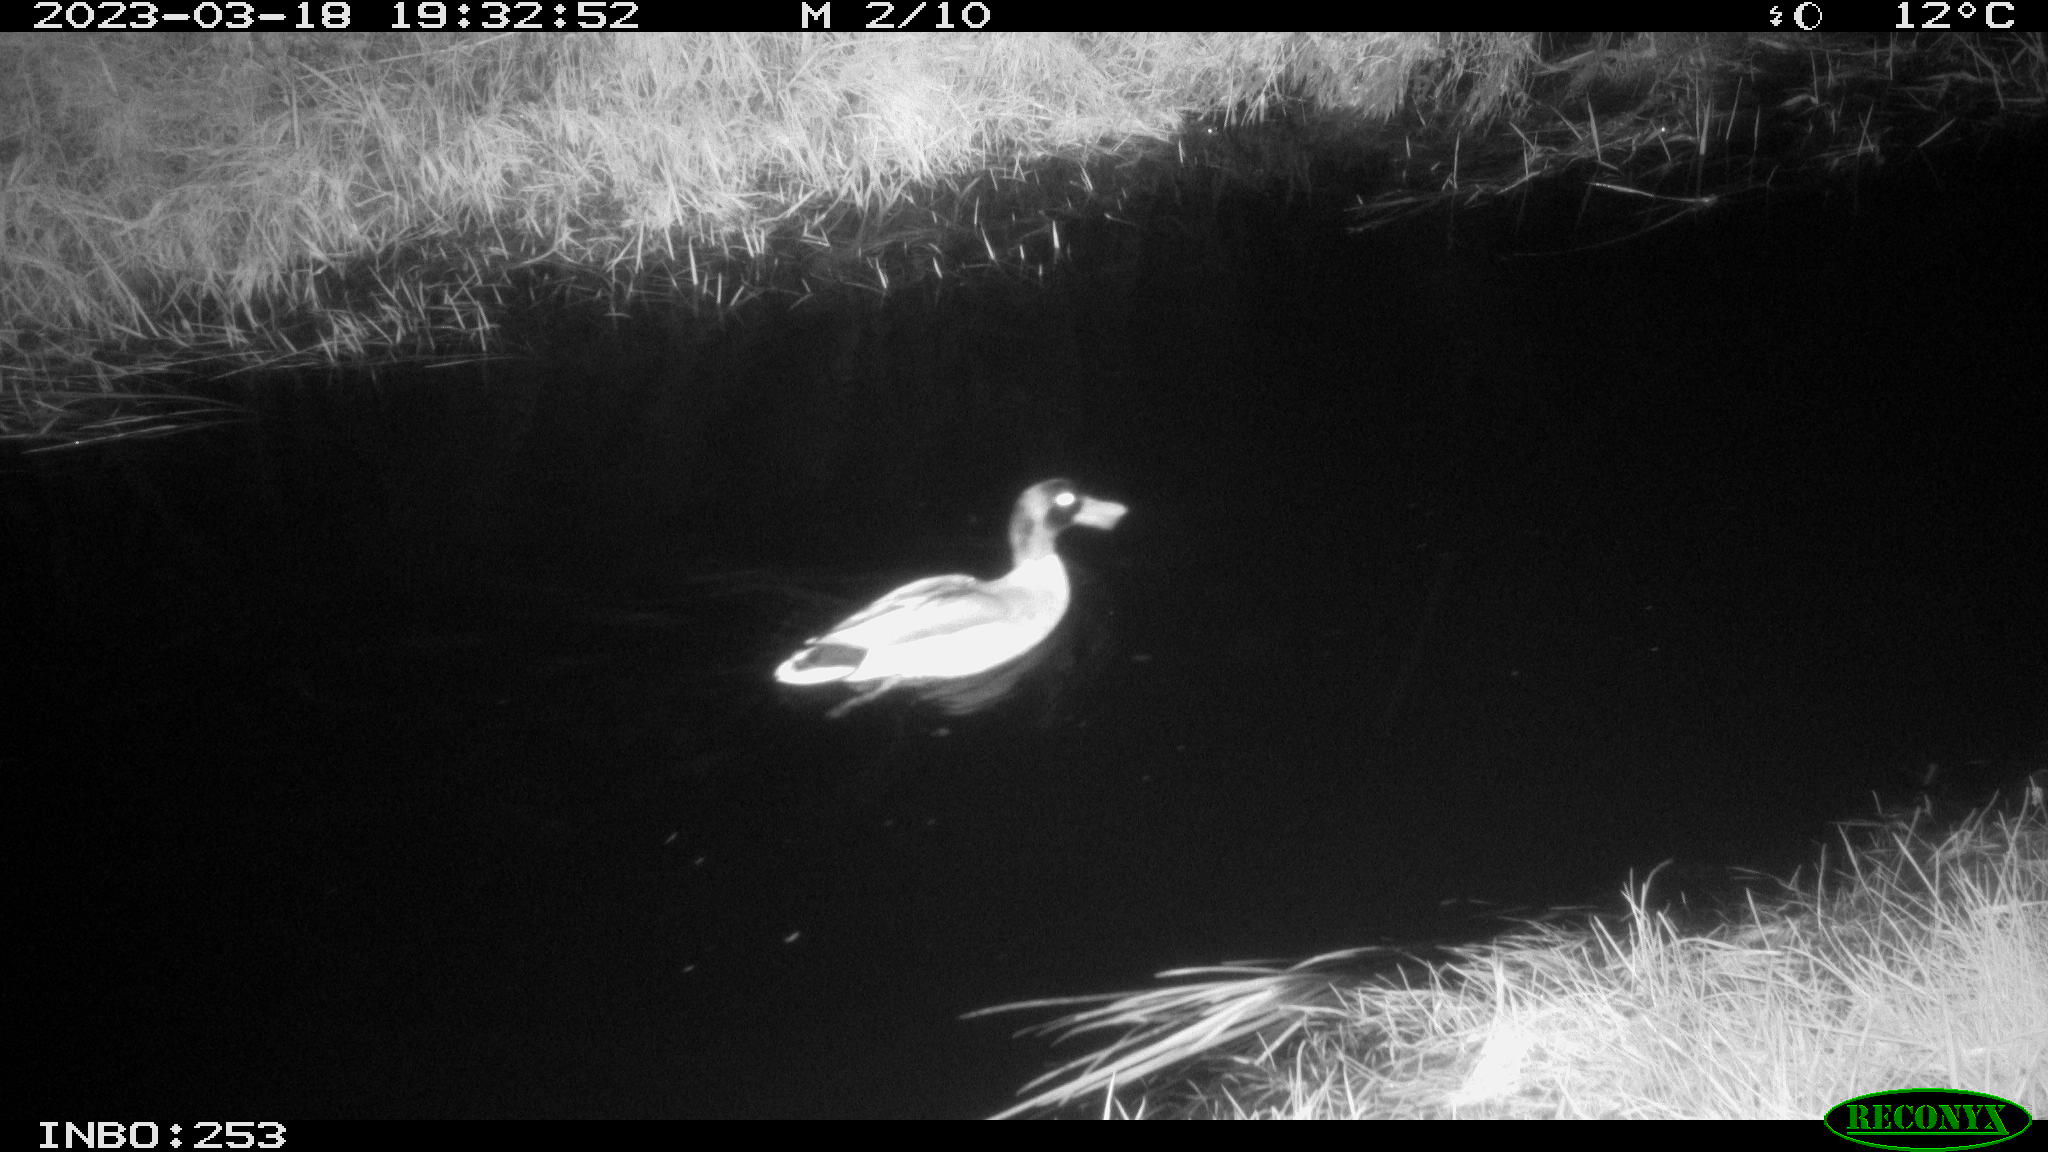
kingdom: Animalia
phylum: Chordata
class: Aves
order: Anseriformes
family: Anatidae
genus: Anas
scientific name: Anas
